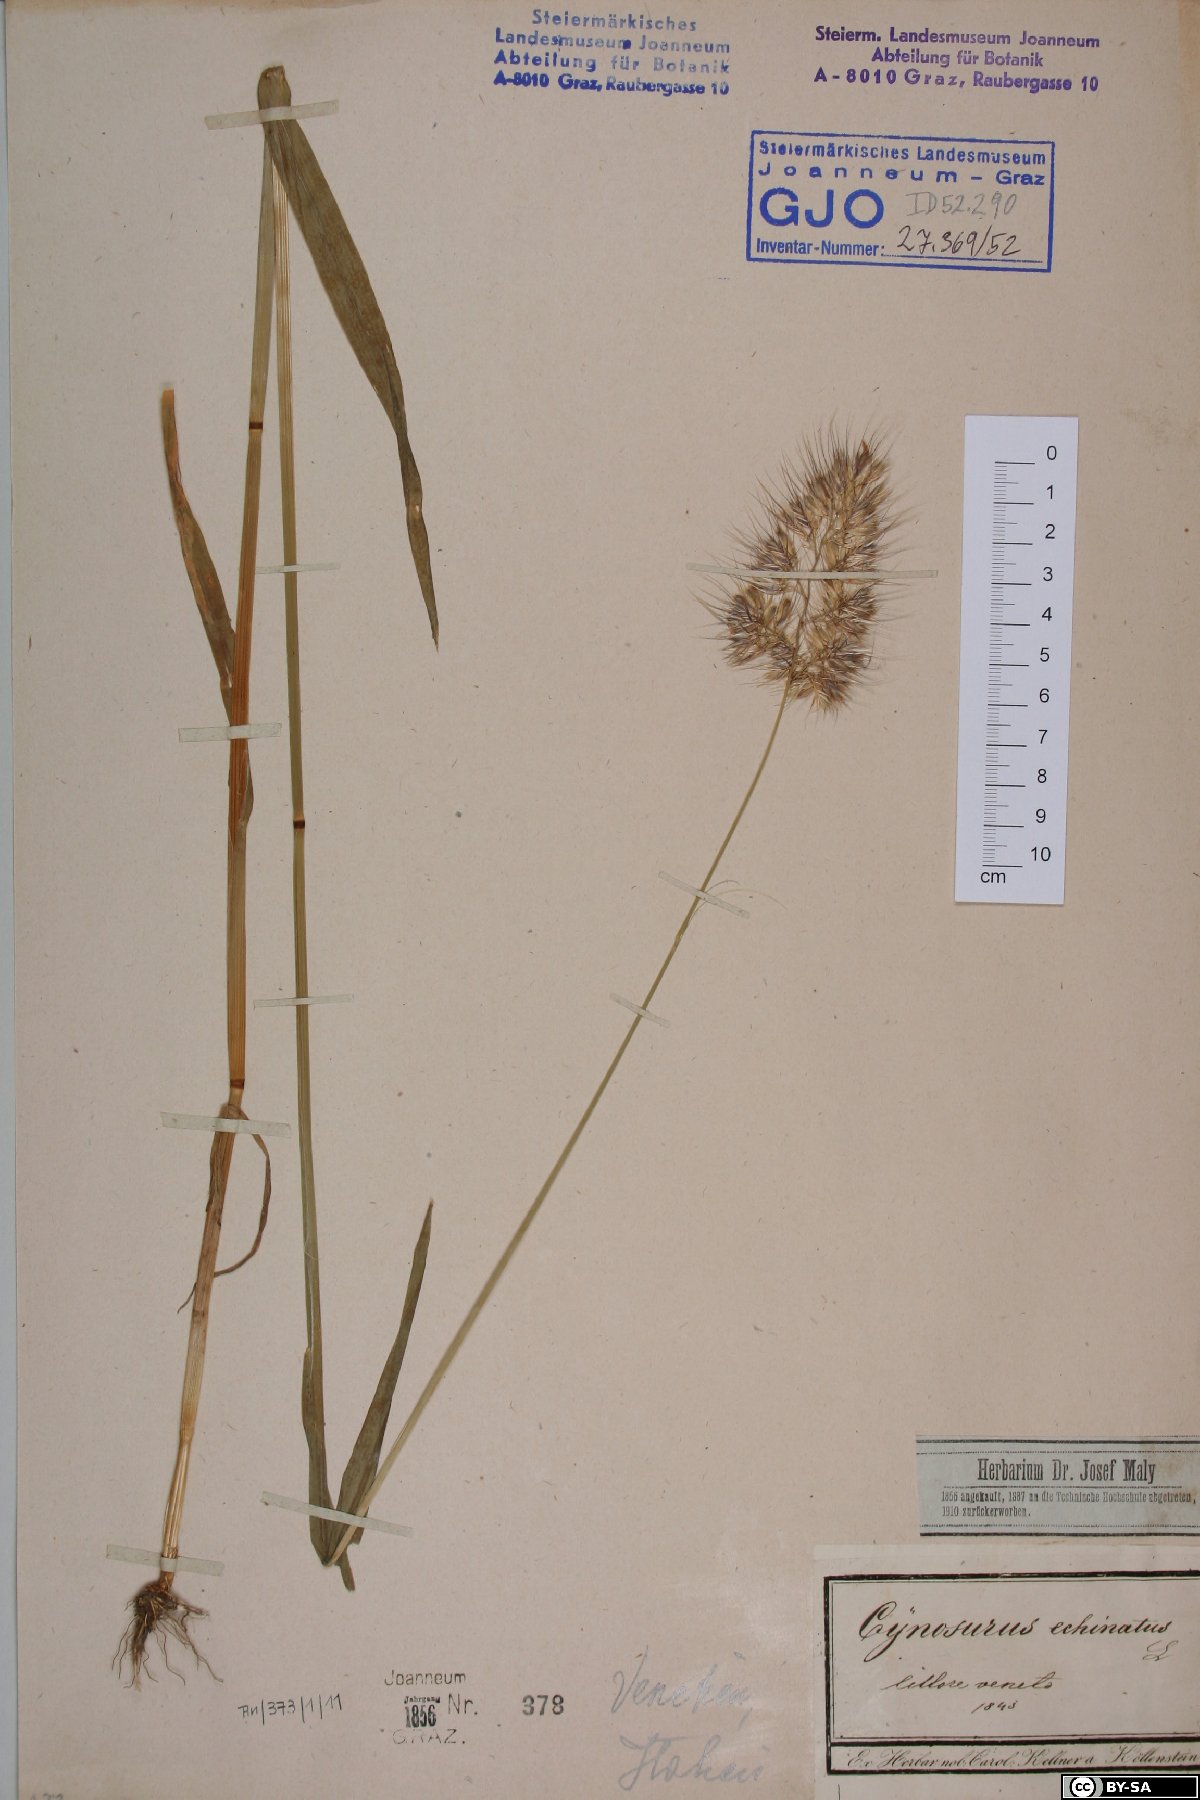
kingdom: Plantae
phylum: Tracheophyta
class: Liliopsida
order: Poales
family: Poaceae
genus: Cynosurus
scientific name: Cynosurus echinatus
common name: Rough dog's-tail
